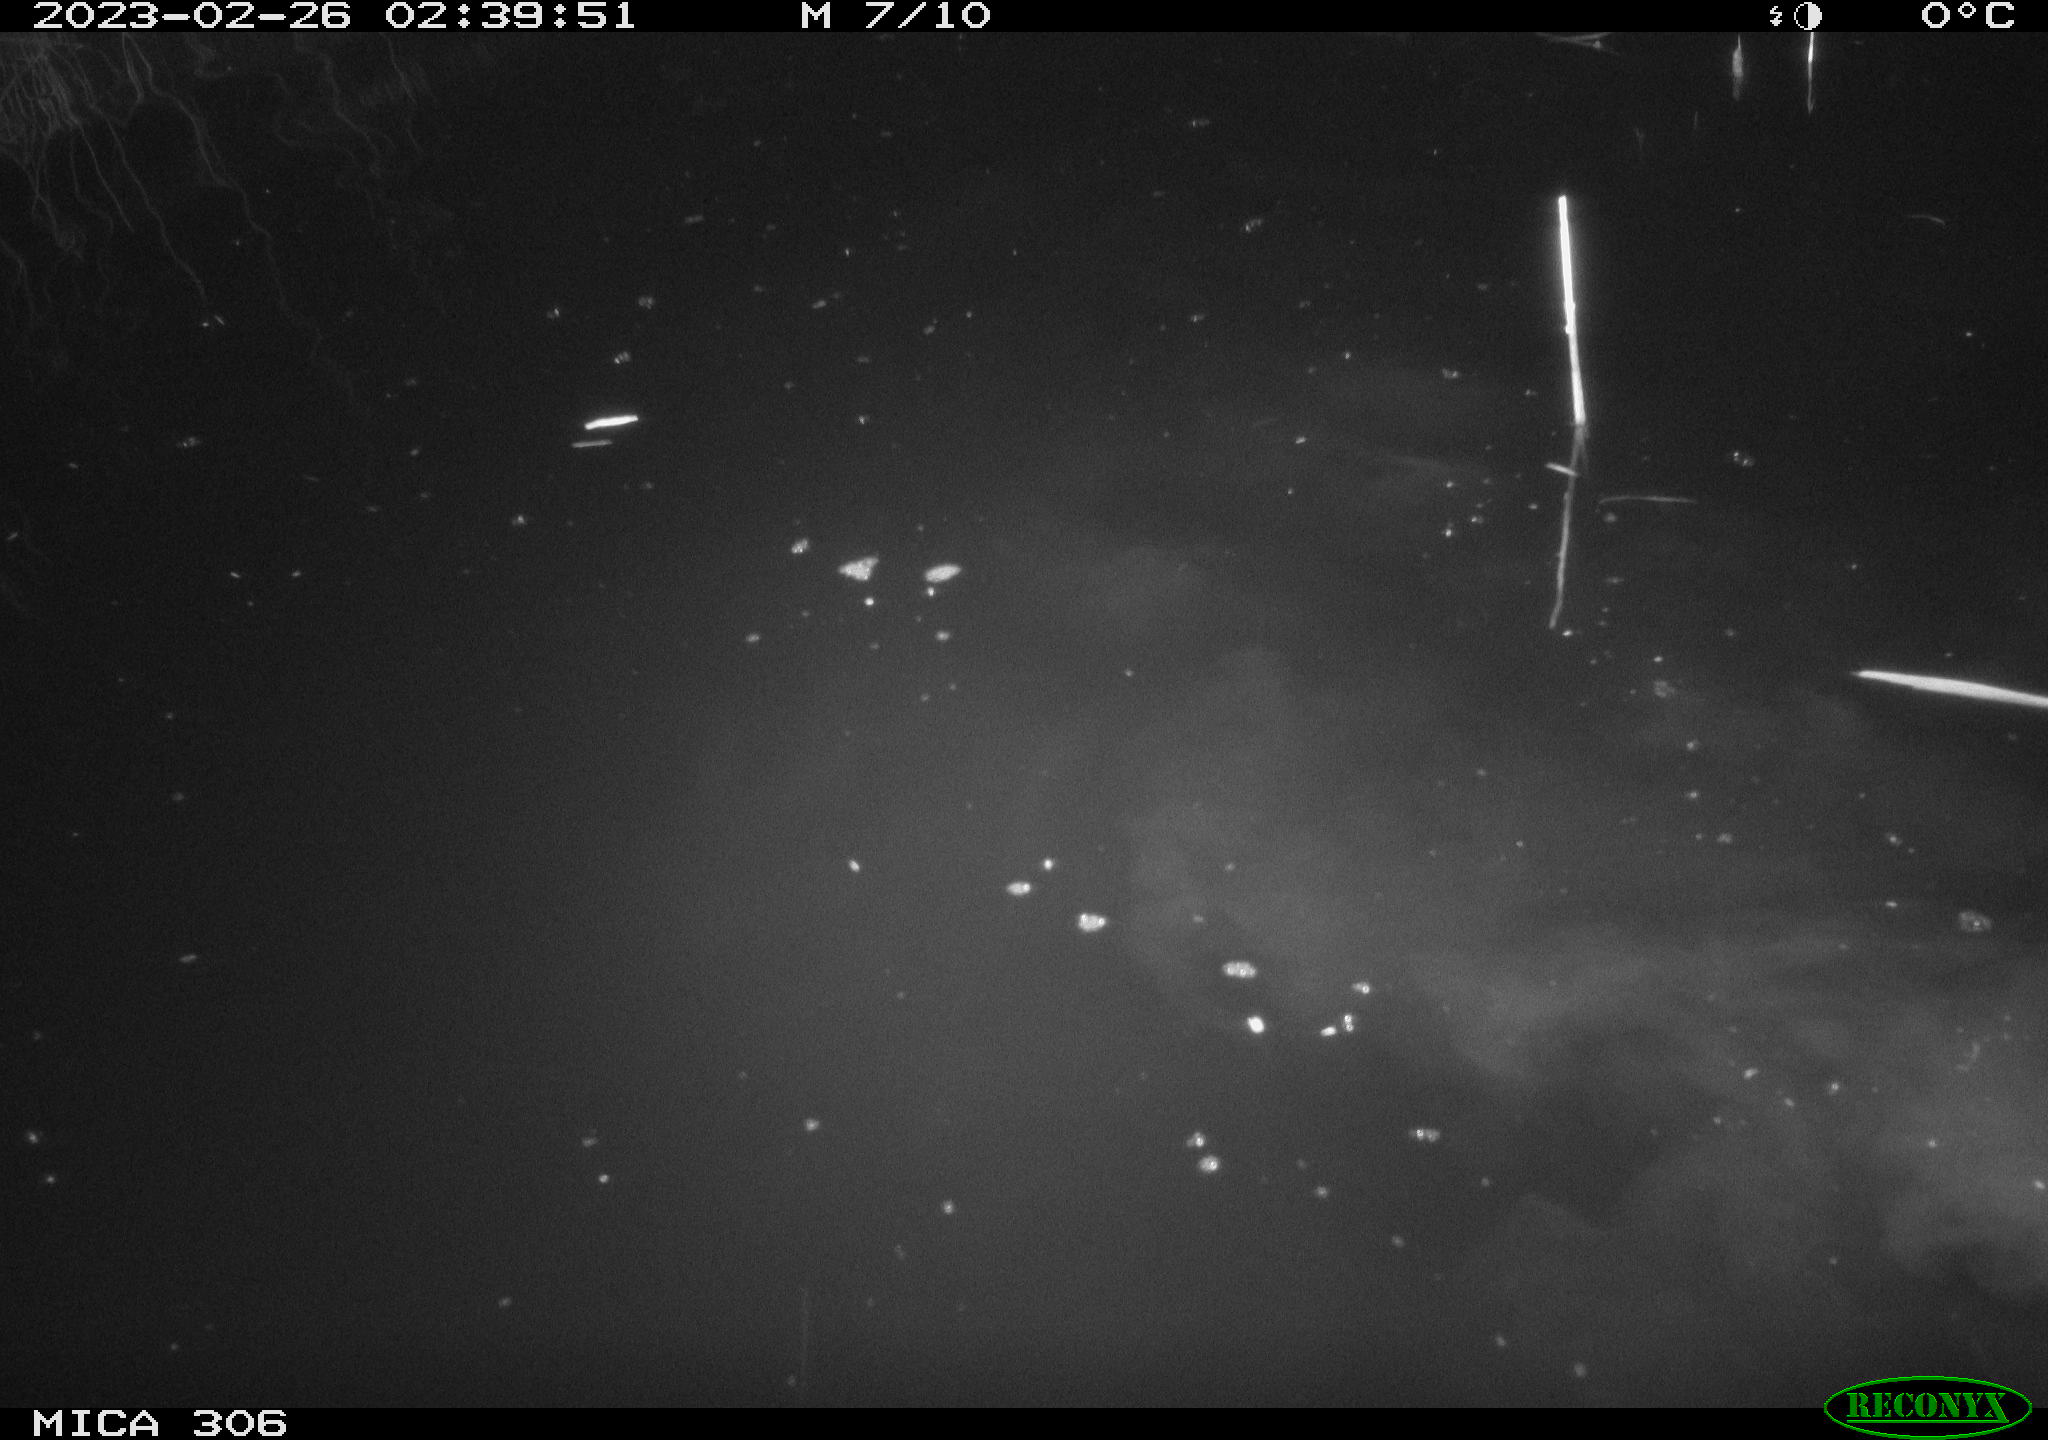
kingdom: Animalia
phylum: Chordata
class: Aves
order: Anseriformes
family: Anatidae
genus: Anas
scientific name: Anas
